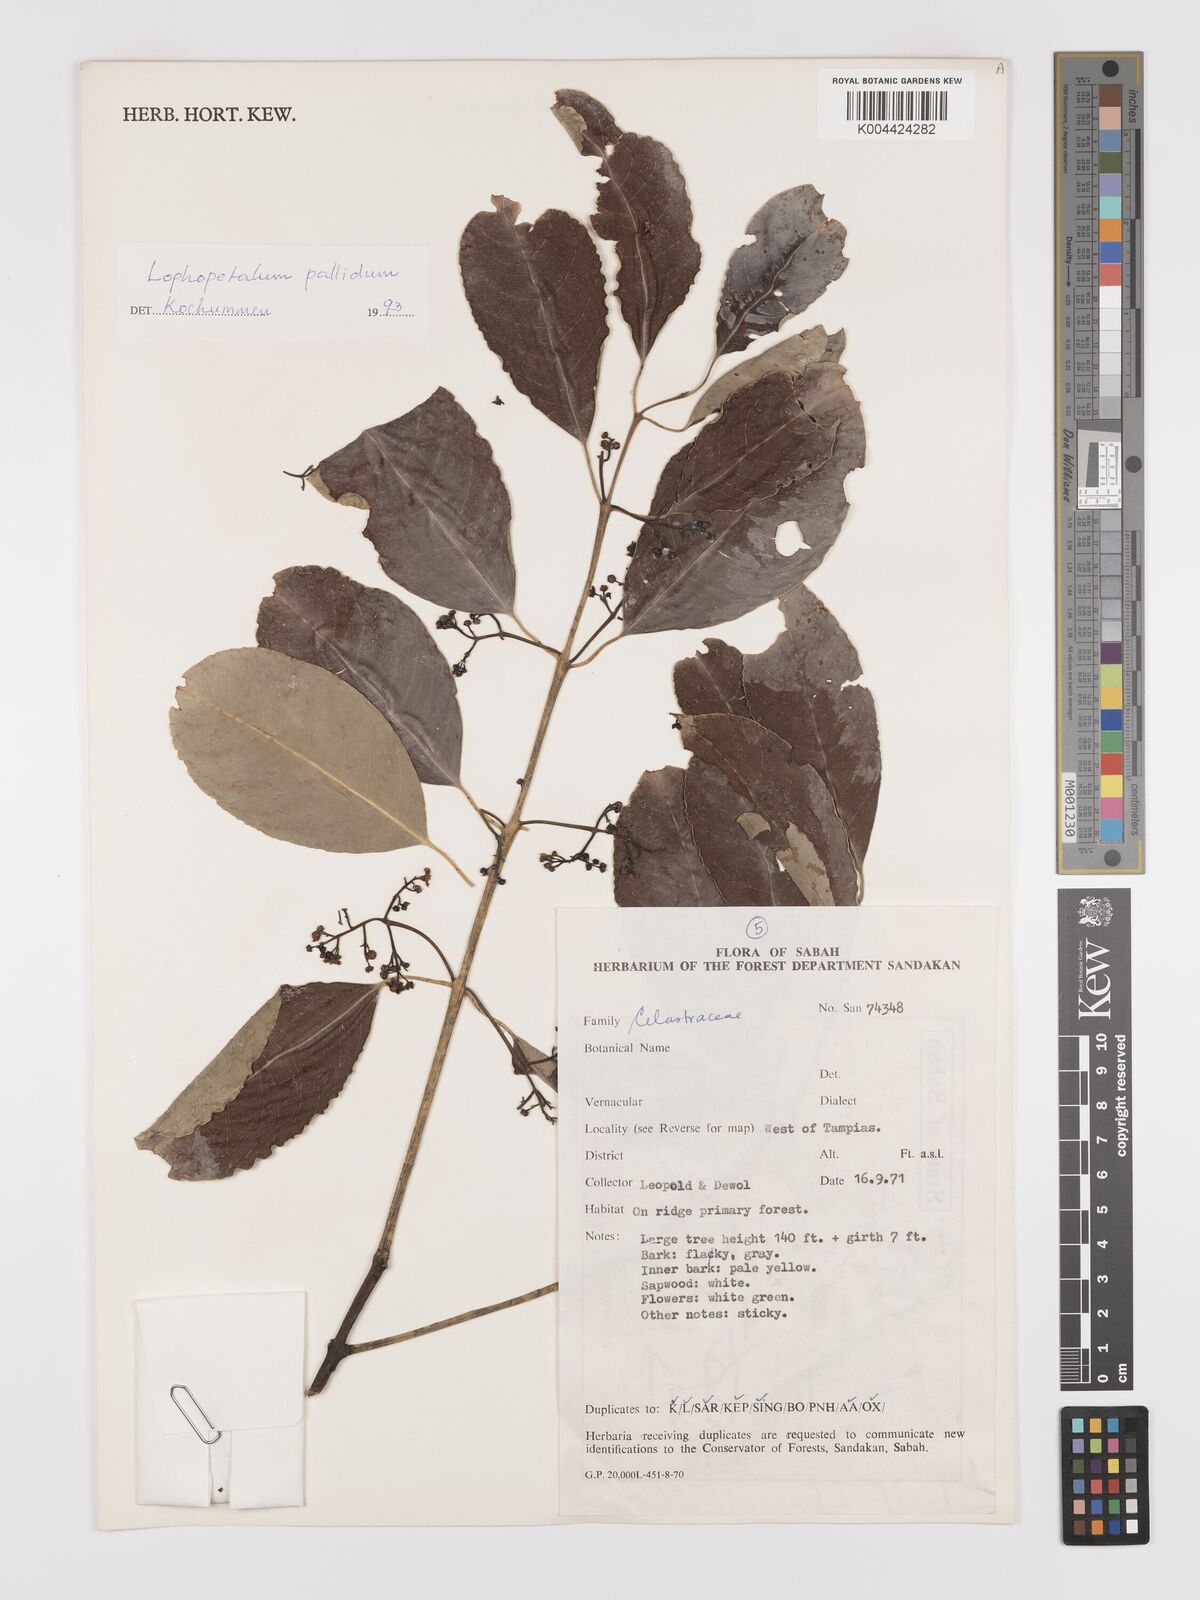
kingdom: Plantae
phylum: Tracheophyta
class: Magnoliopsida
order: Celastrales
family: Celastraceae
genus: Lophopetalum
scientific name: Lophopetalum pallidum
